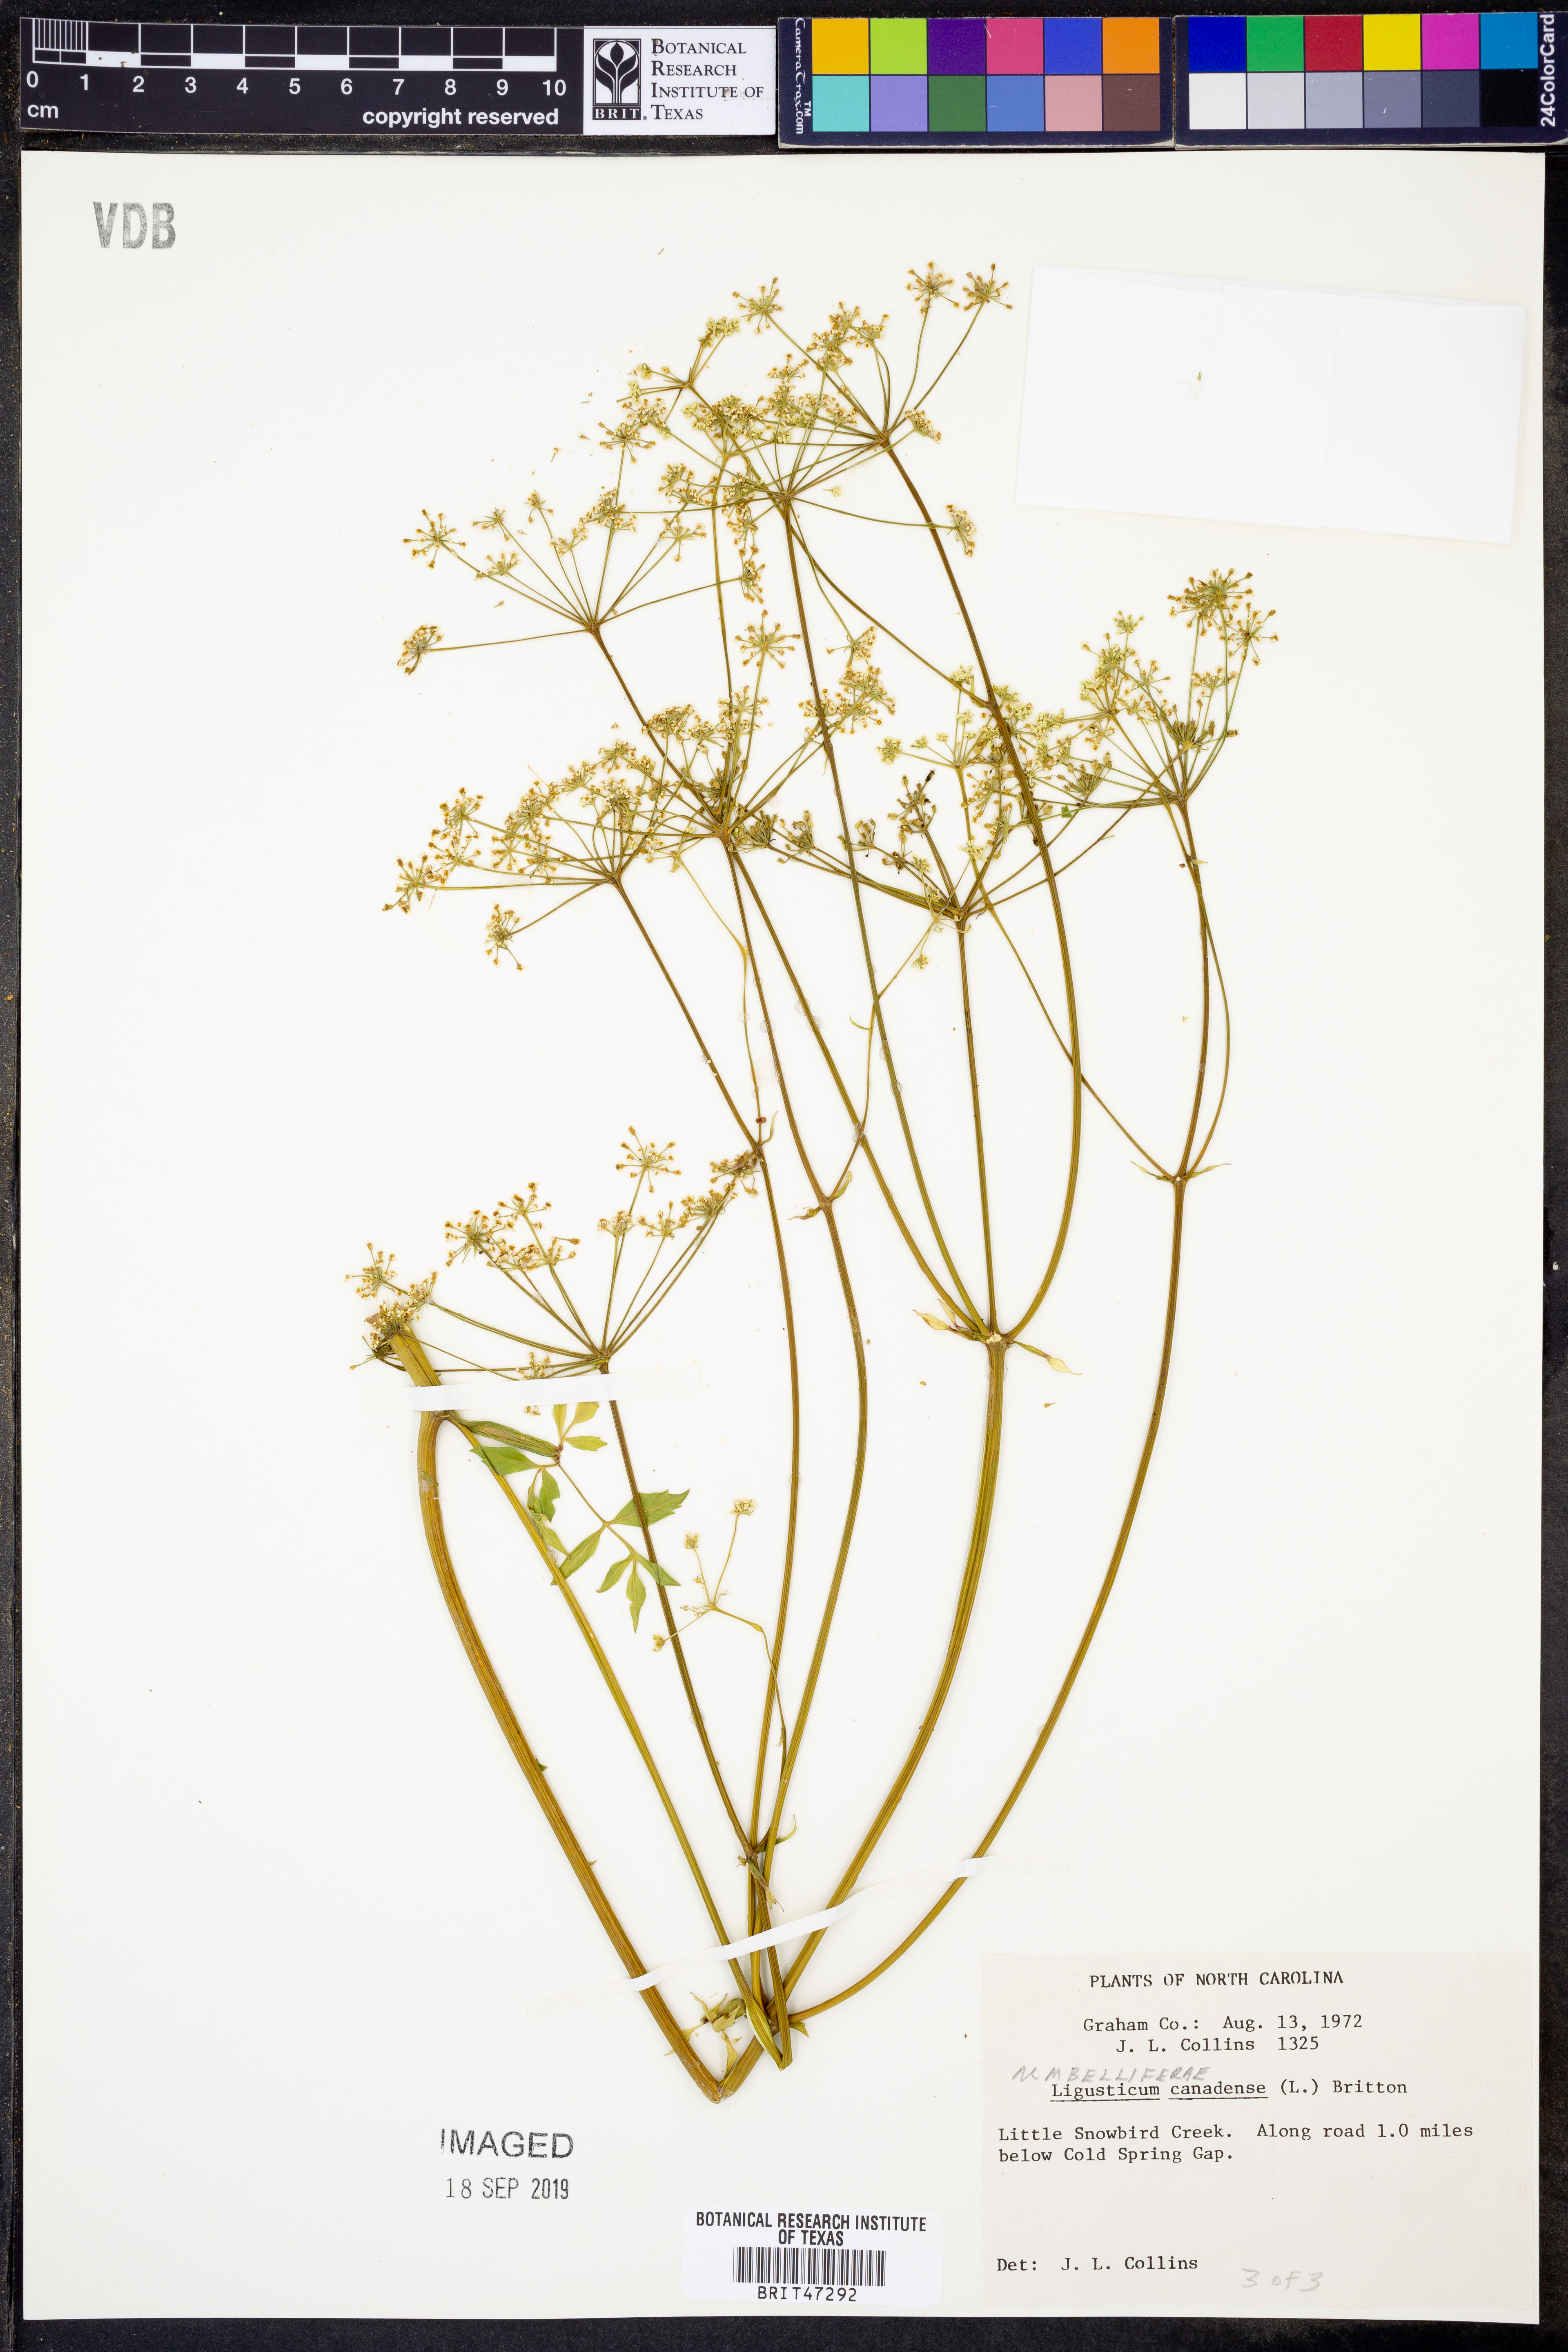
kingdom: Plantae
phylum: Tracheophyta
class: Magnoliopsida
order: Apiales
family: Apiaceae
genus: Ligusticum
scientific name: Ligusticum canadense
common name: American lovage
